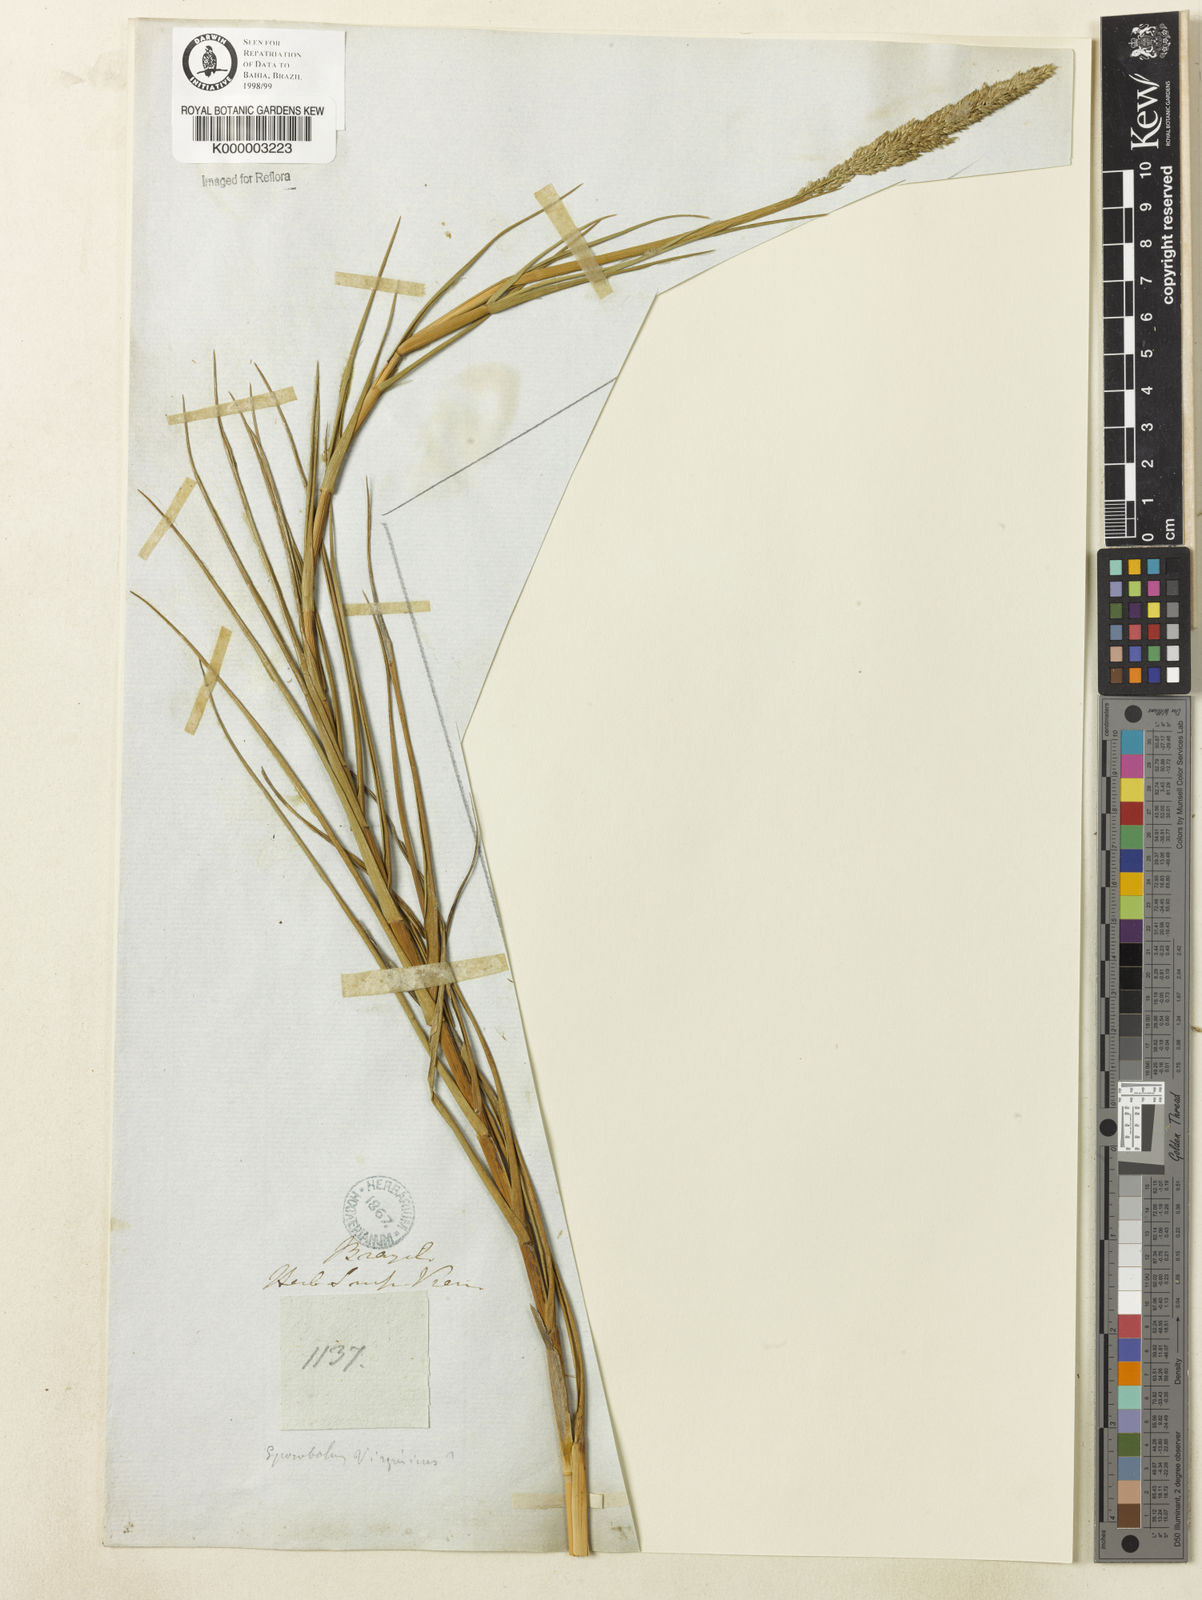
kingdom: Plantae
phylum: Tracheophyta
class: Liliopsida
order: Poales
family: Poaceae
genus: Sporobolus
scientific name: Sporobolus virginicus
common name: Beach dropseed
